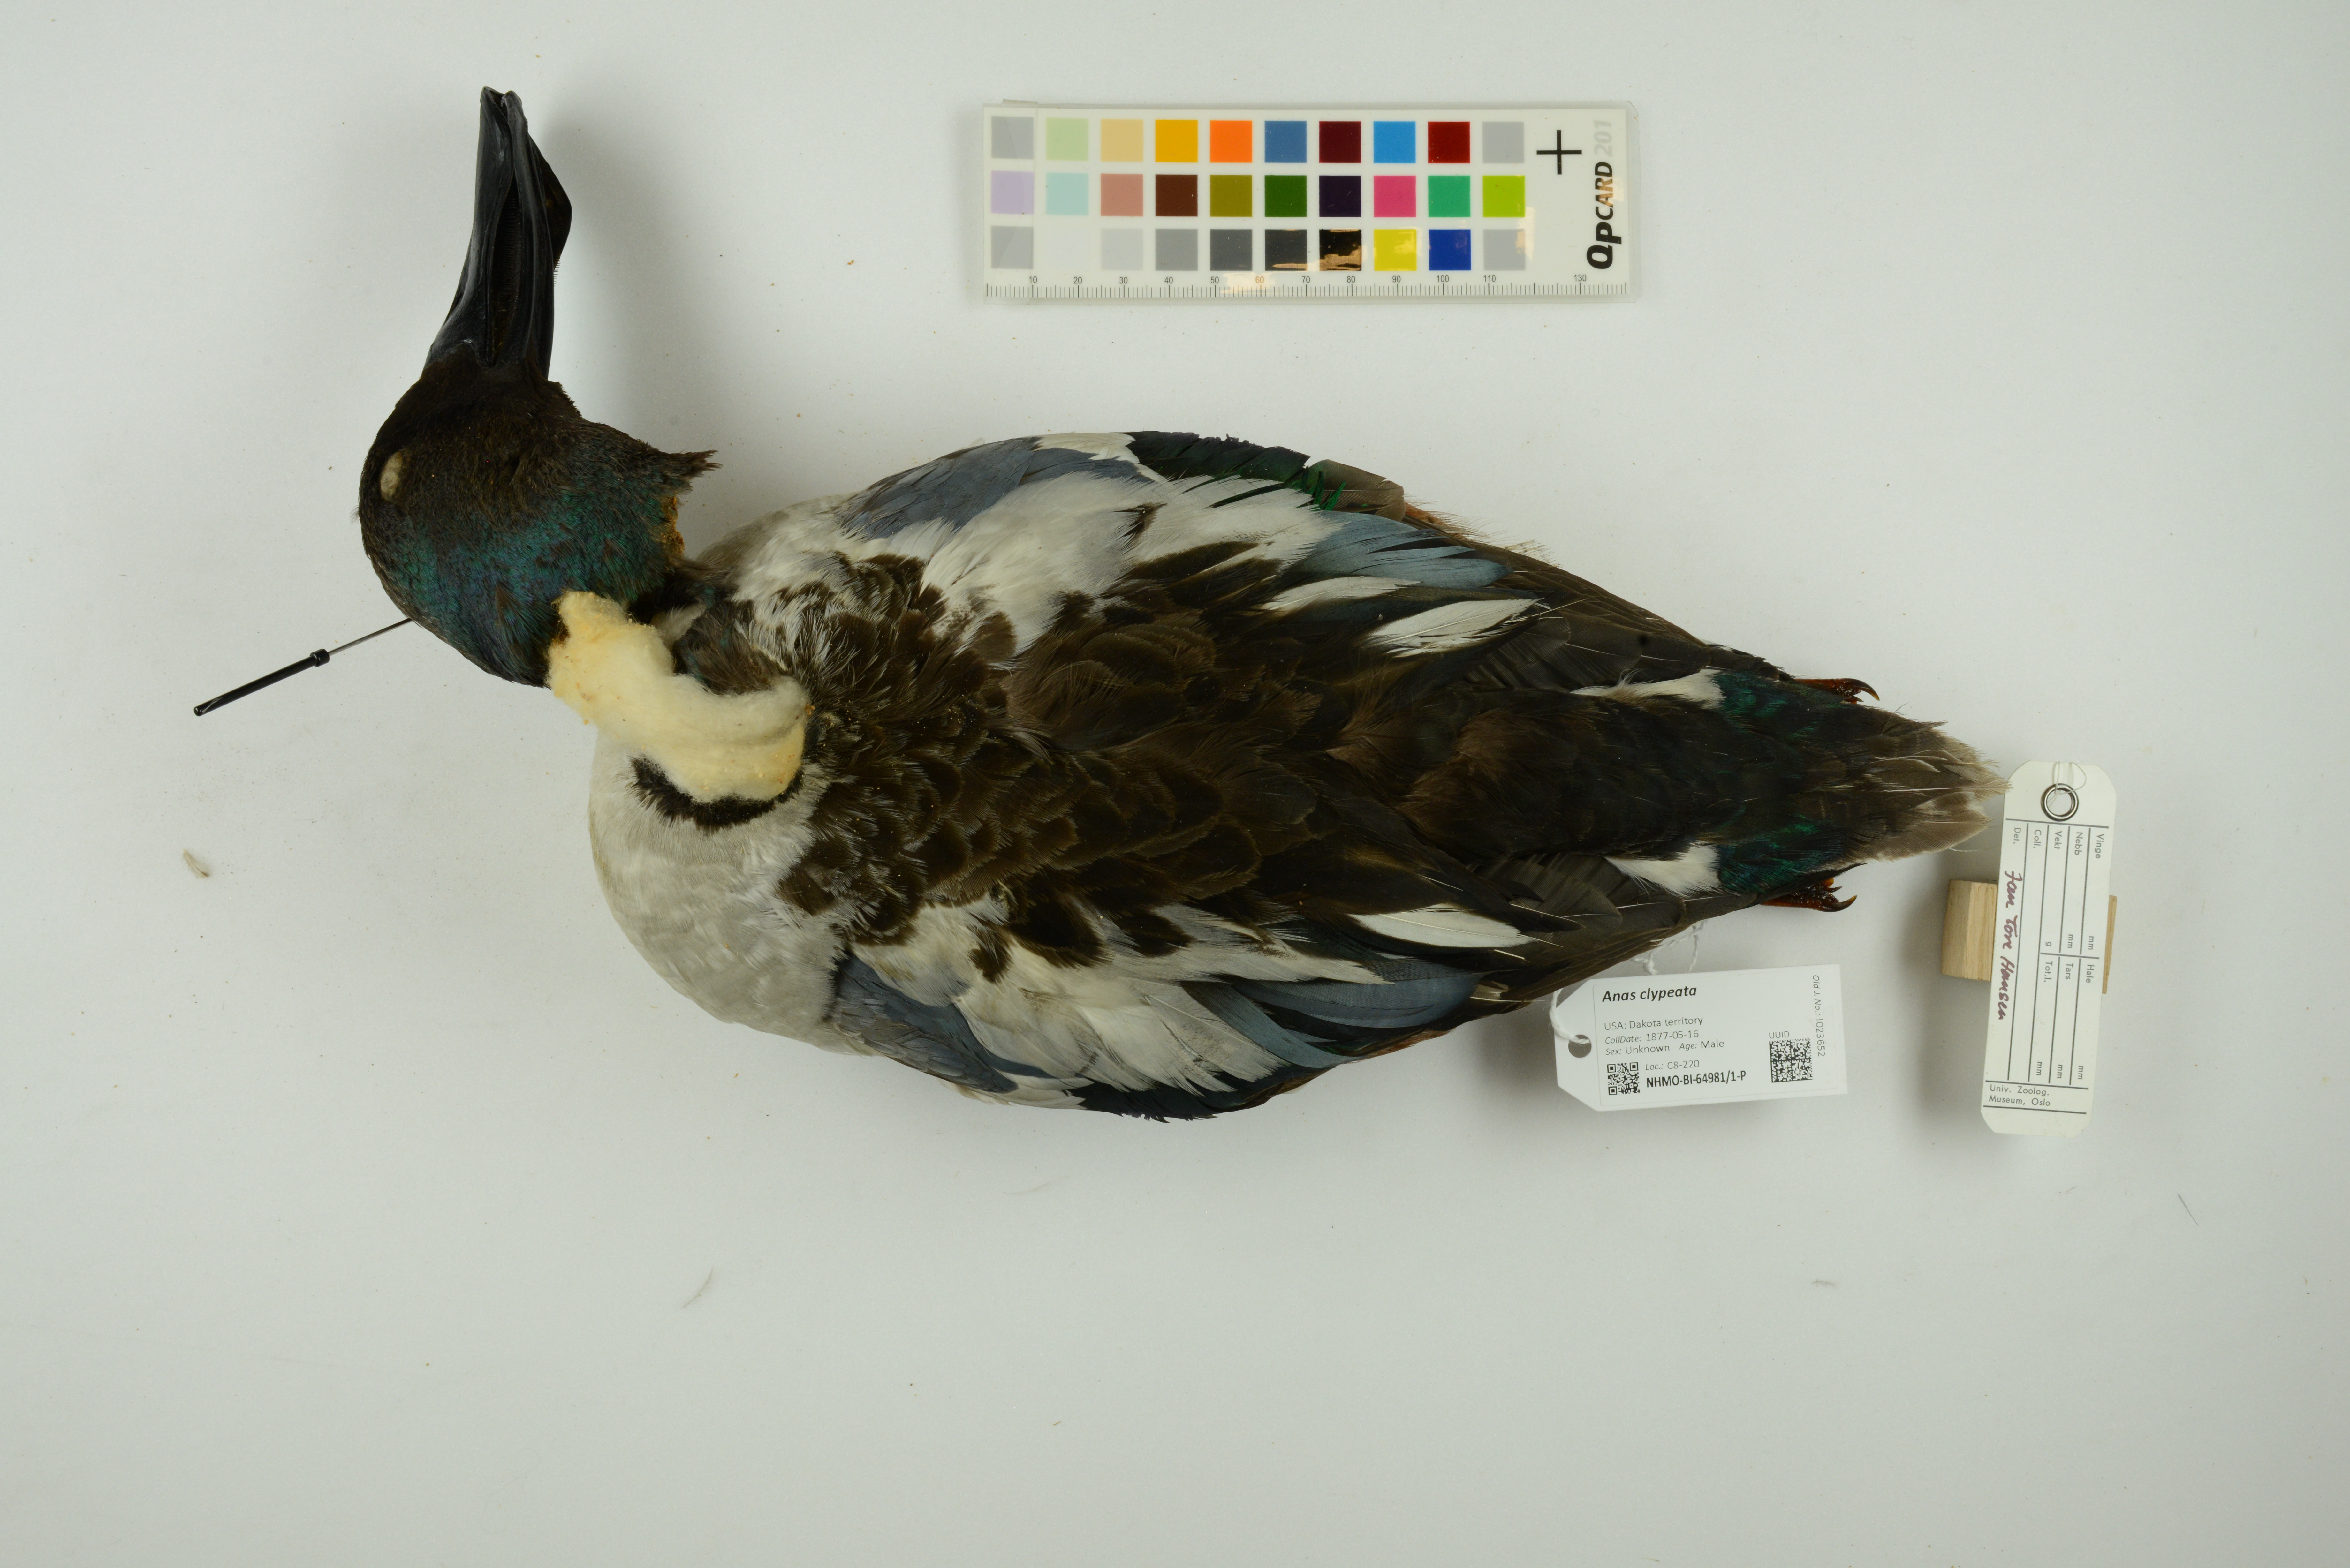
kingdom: Animalia
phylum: Chordata
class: Aves
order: Anseriformes
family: Anatidae
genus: Spatula
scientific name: Spatula clypeata
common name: Northern shoveler
